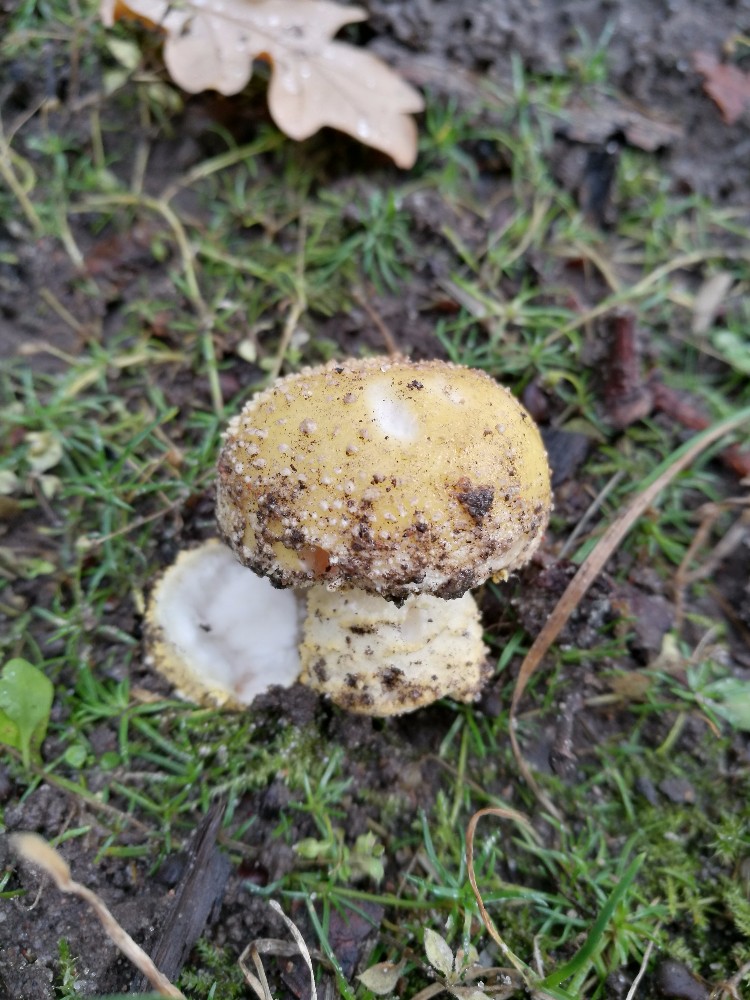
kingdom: Fungi
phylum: Basidiomycota
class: Agaricomycetes
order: Agaricales
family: Amanitaceae
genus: Amanita
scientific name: Amanita franchetii
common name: gulrandet fluesvamp
